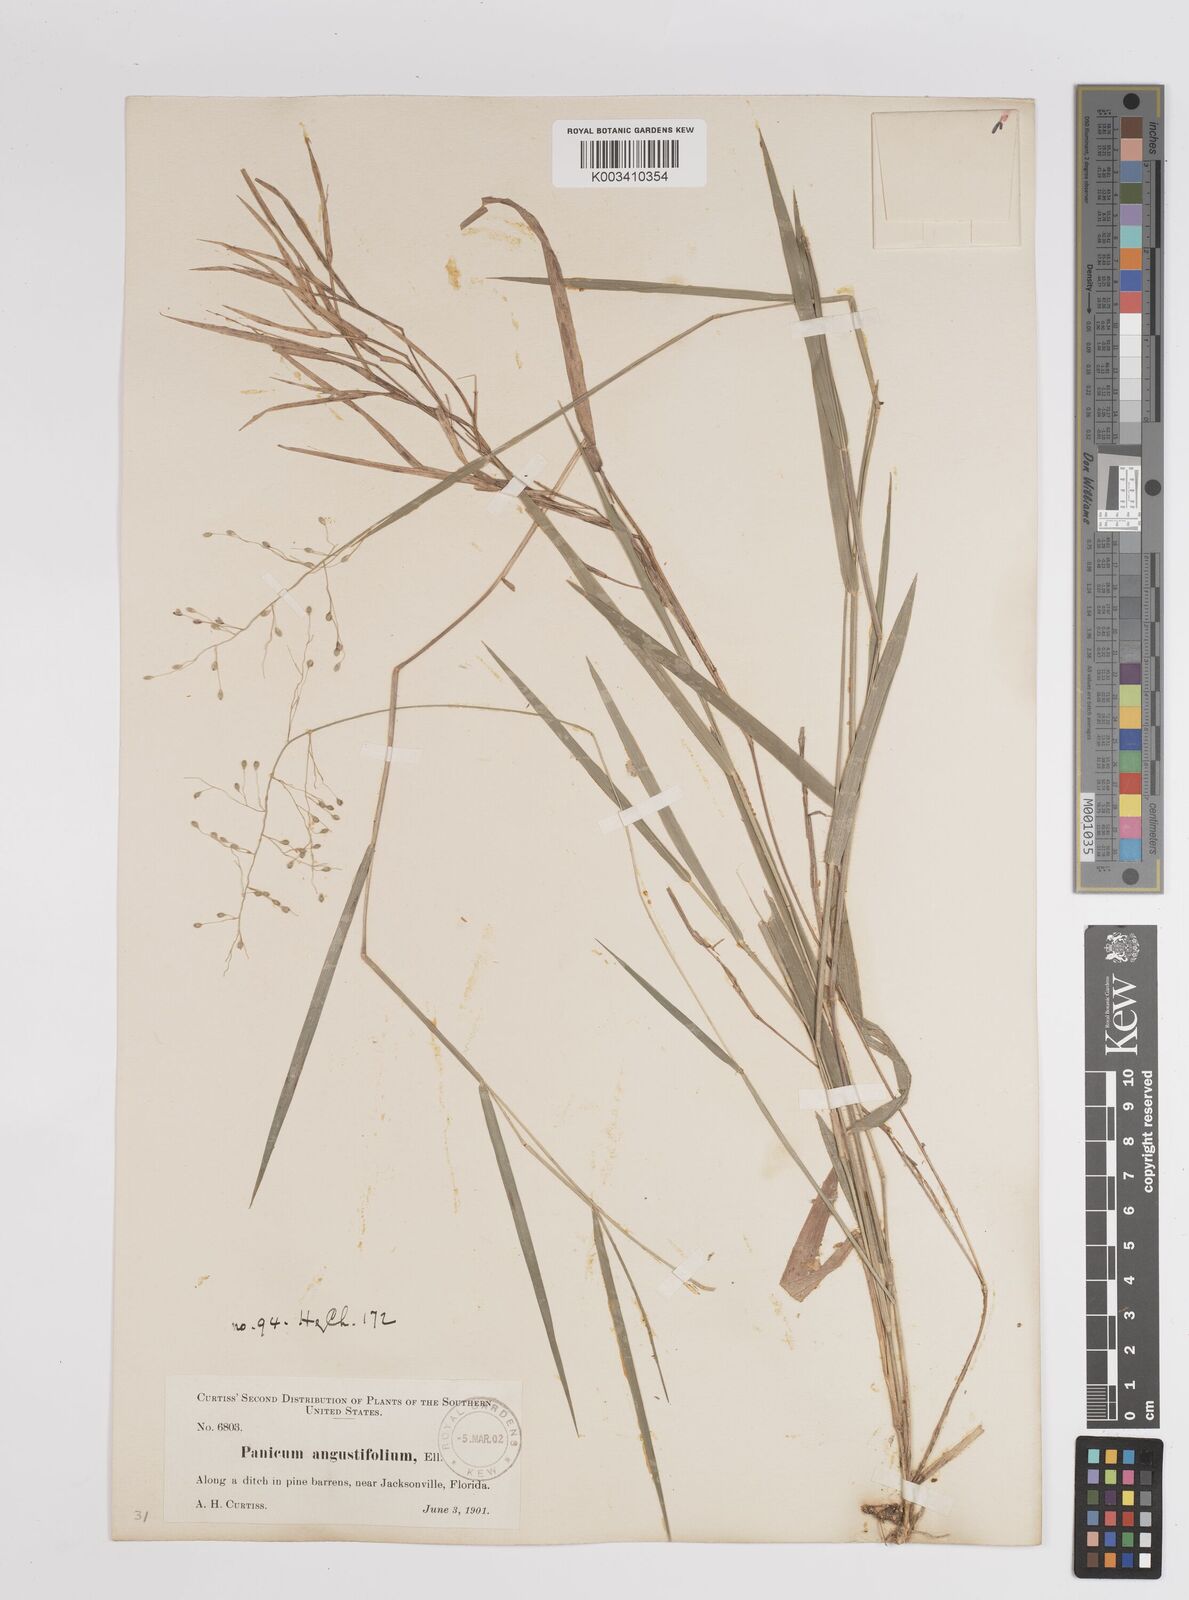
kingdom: Plantae
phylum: Tracheophyta
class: Liliopsida
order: Poales
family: Poaceae
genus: Dichanthelium
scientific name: Dichanthelium angustifolium
